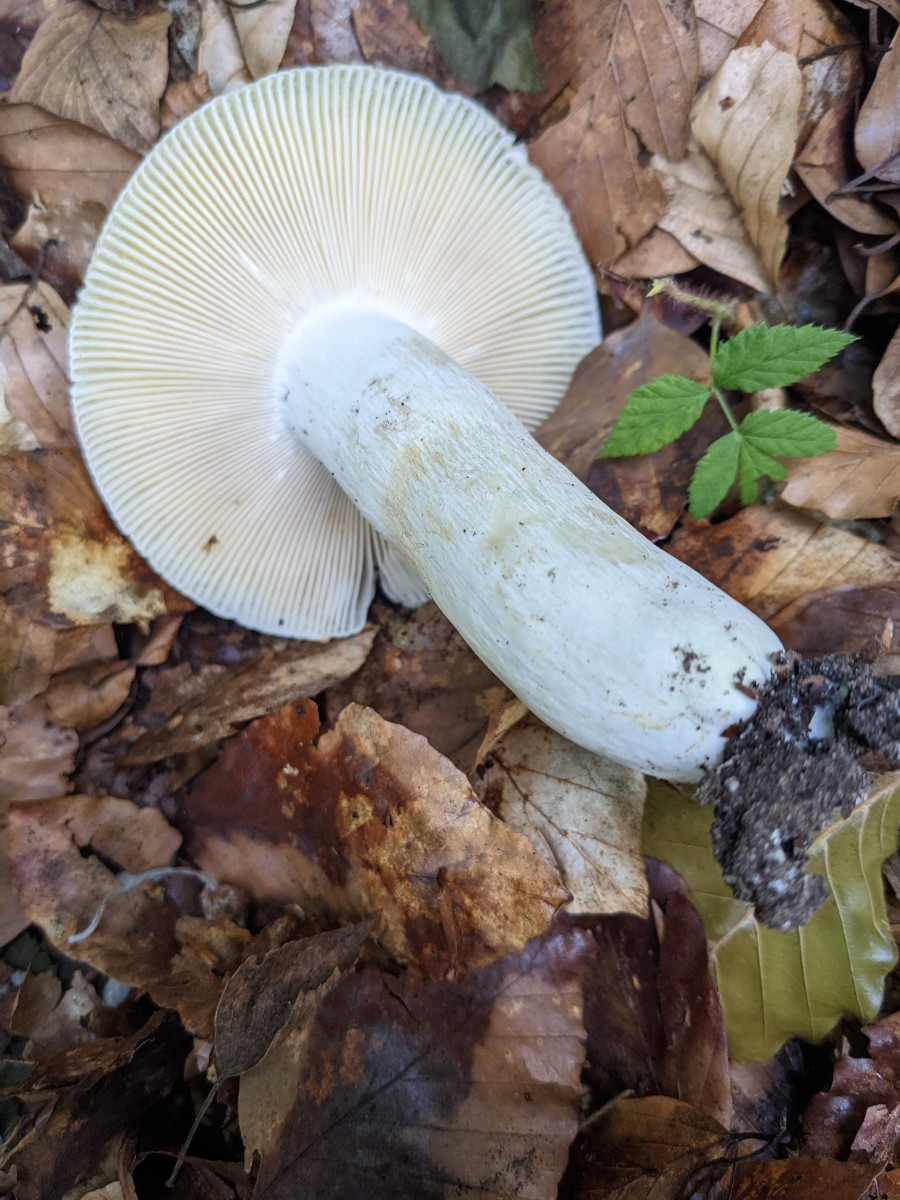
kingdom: Fungi
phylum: Basidiomycota
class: Agaricomycetes
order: Russulales
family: Russulaceae
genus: Russula
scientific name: Russula violeipes
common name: ferskengul skørhat
